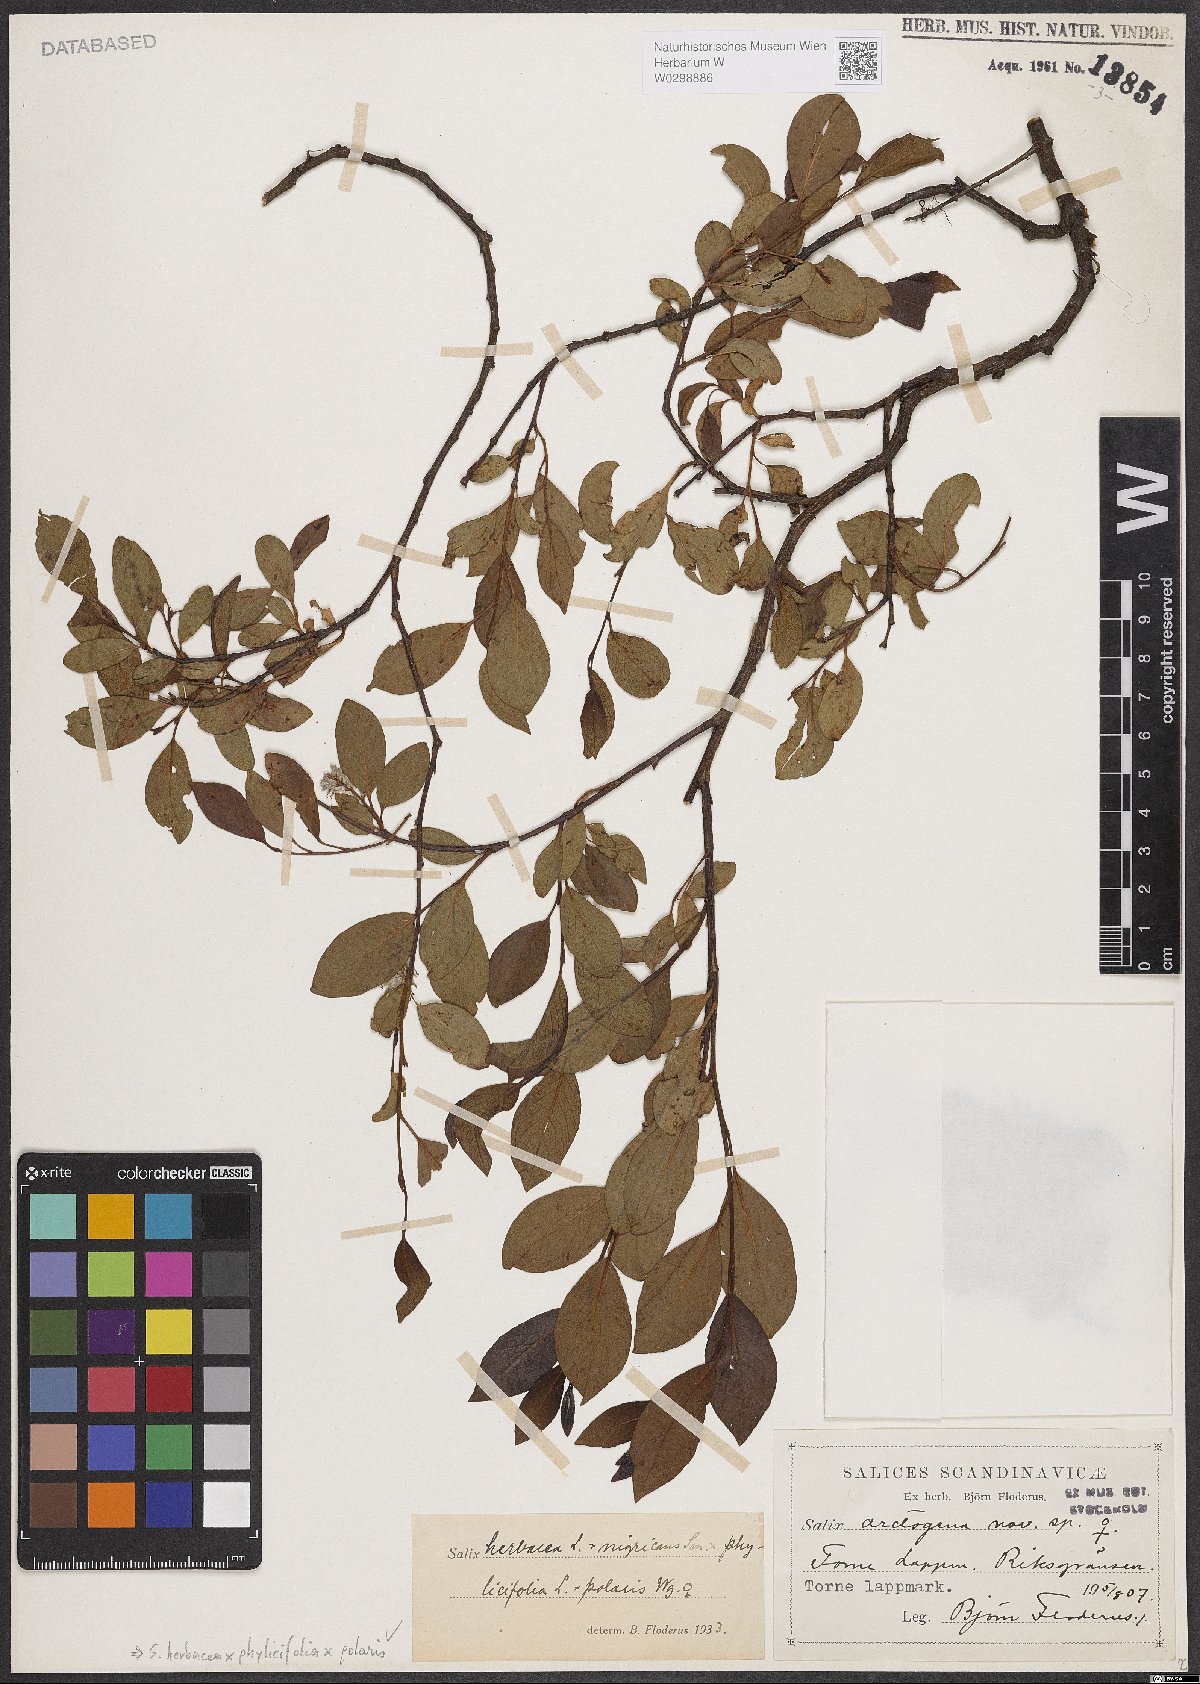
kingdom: Plantae
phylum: Tracheophyta
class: Magnoliopsida
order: Malpighiales
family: Salicaceae
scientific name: Salicaceae
